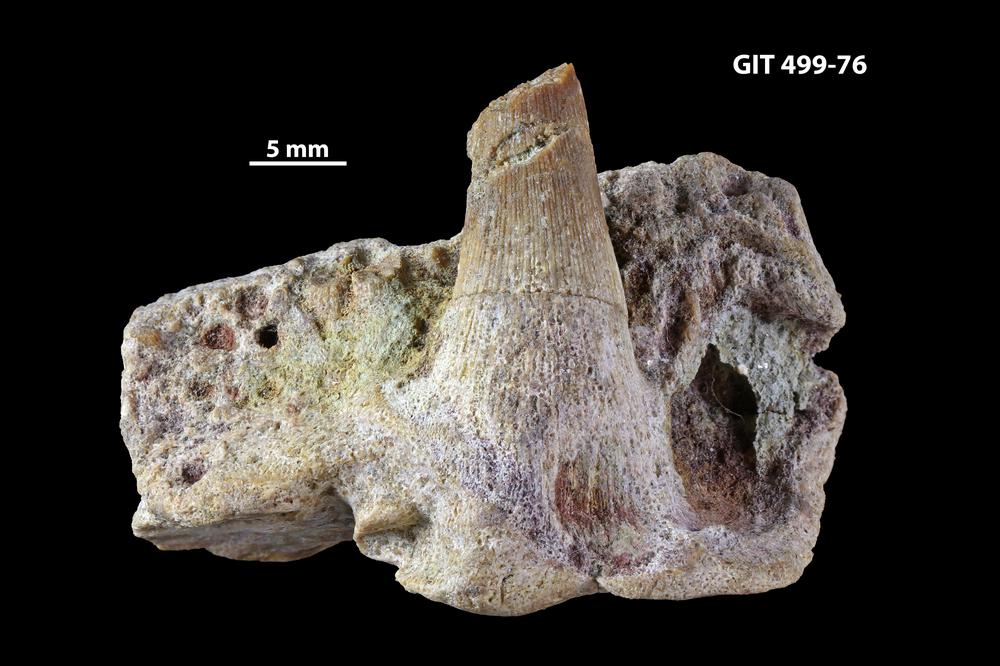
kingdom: Animalia
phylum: Chordata
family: Holoptychiidae
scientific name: Holoptychiidae
